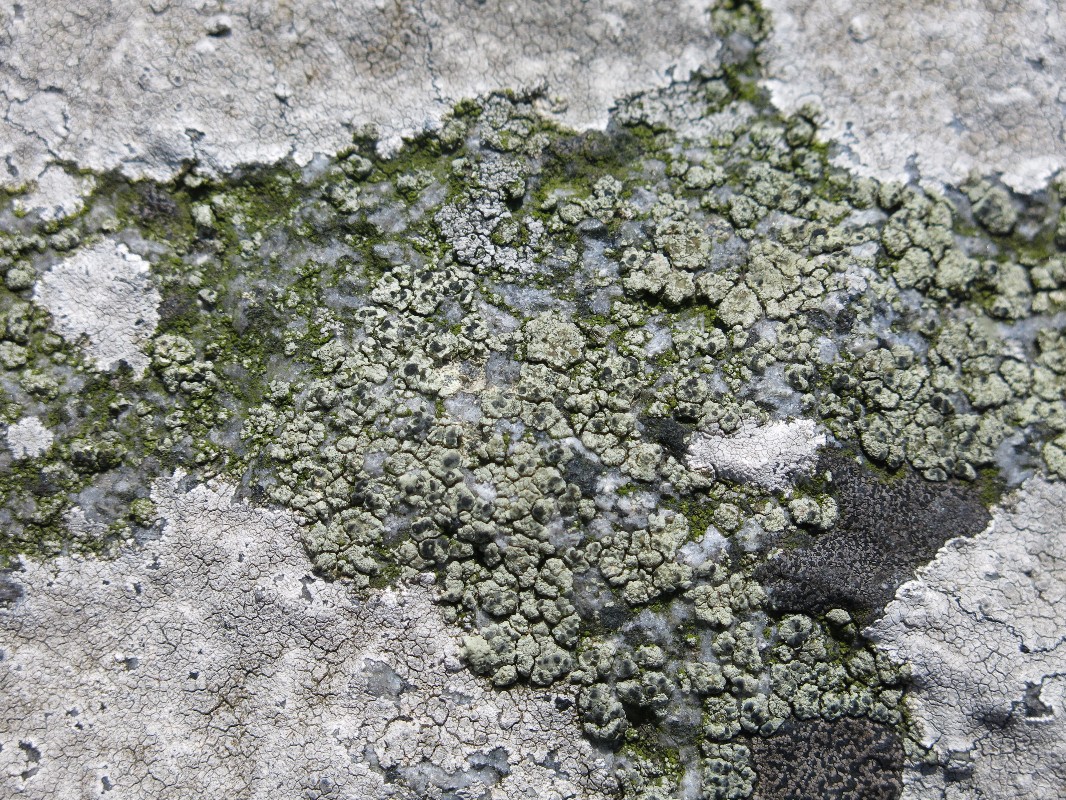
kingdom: Fungi
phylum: Ascomycota
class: Lecanoromycetes
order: Lecanorales
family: Lecanoraceae
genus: Glaucomaria
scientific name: Glaucomaria sulphurea
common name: svovlgul kantskivelav
